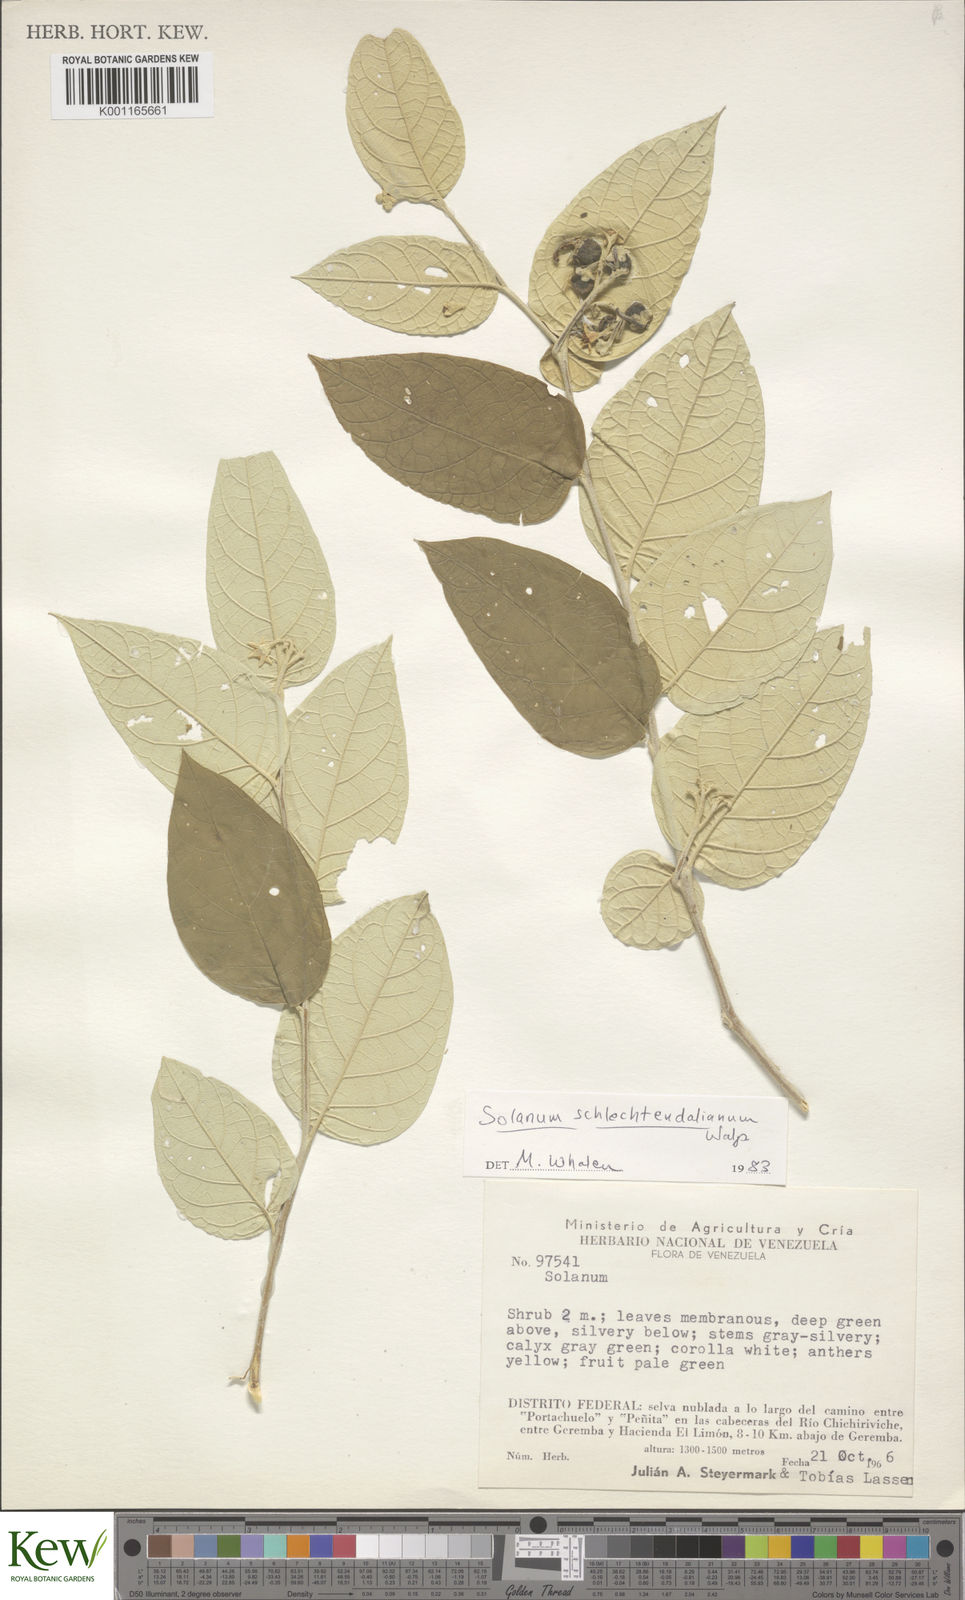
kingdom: Plantae
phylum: Tracheophyta
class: Magnoliopsida
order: Solanales
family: Solanaceae
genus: Solanum
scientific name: Solanum schlechtendalianum
